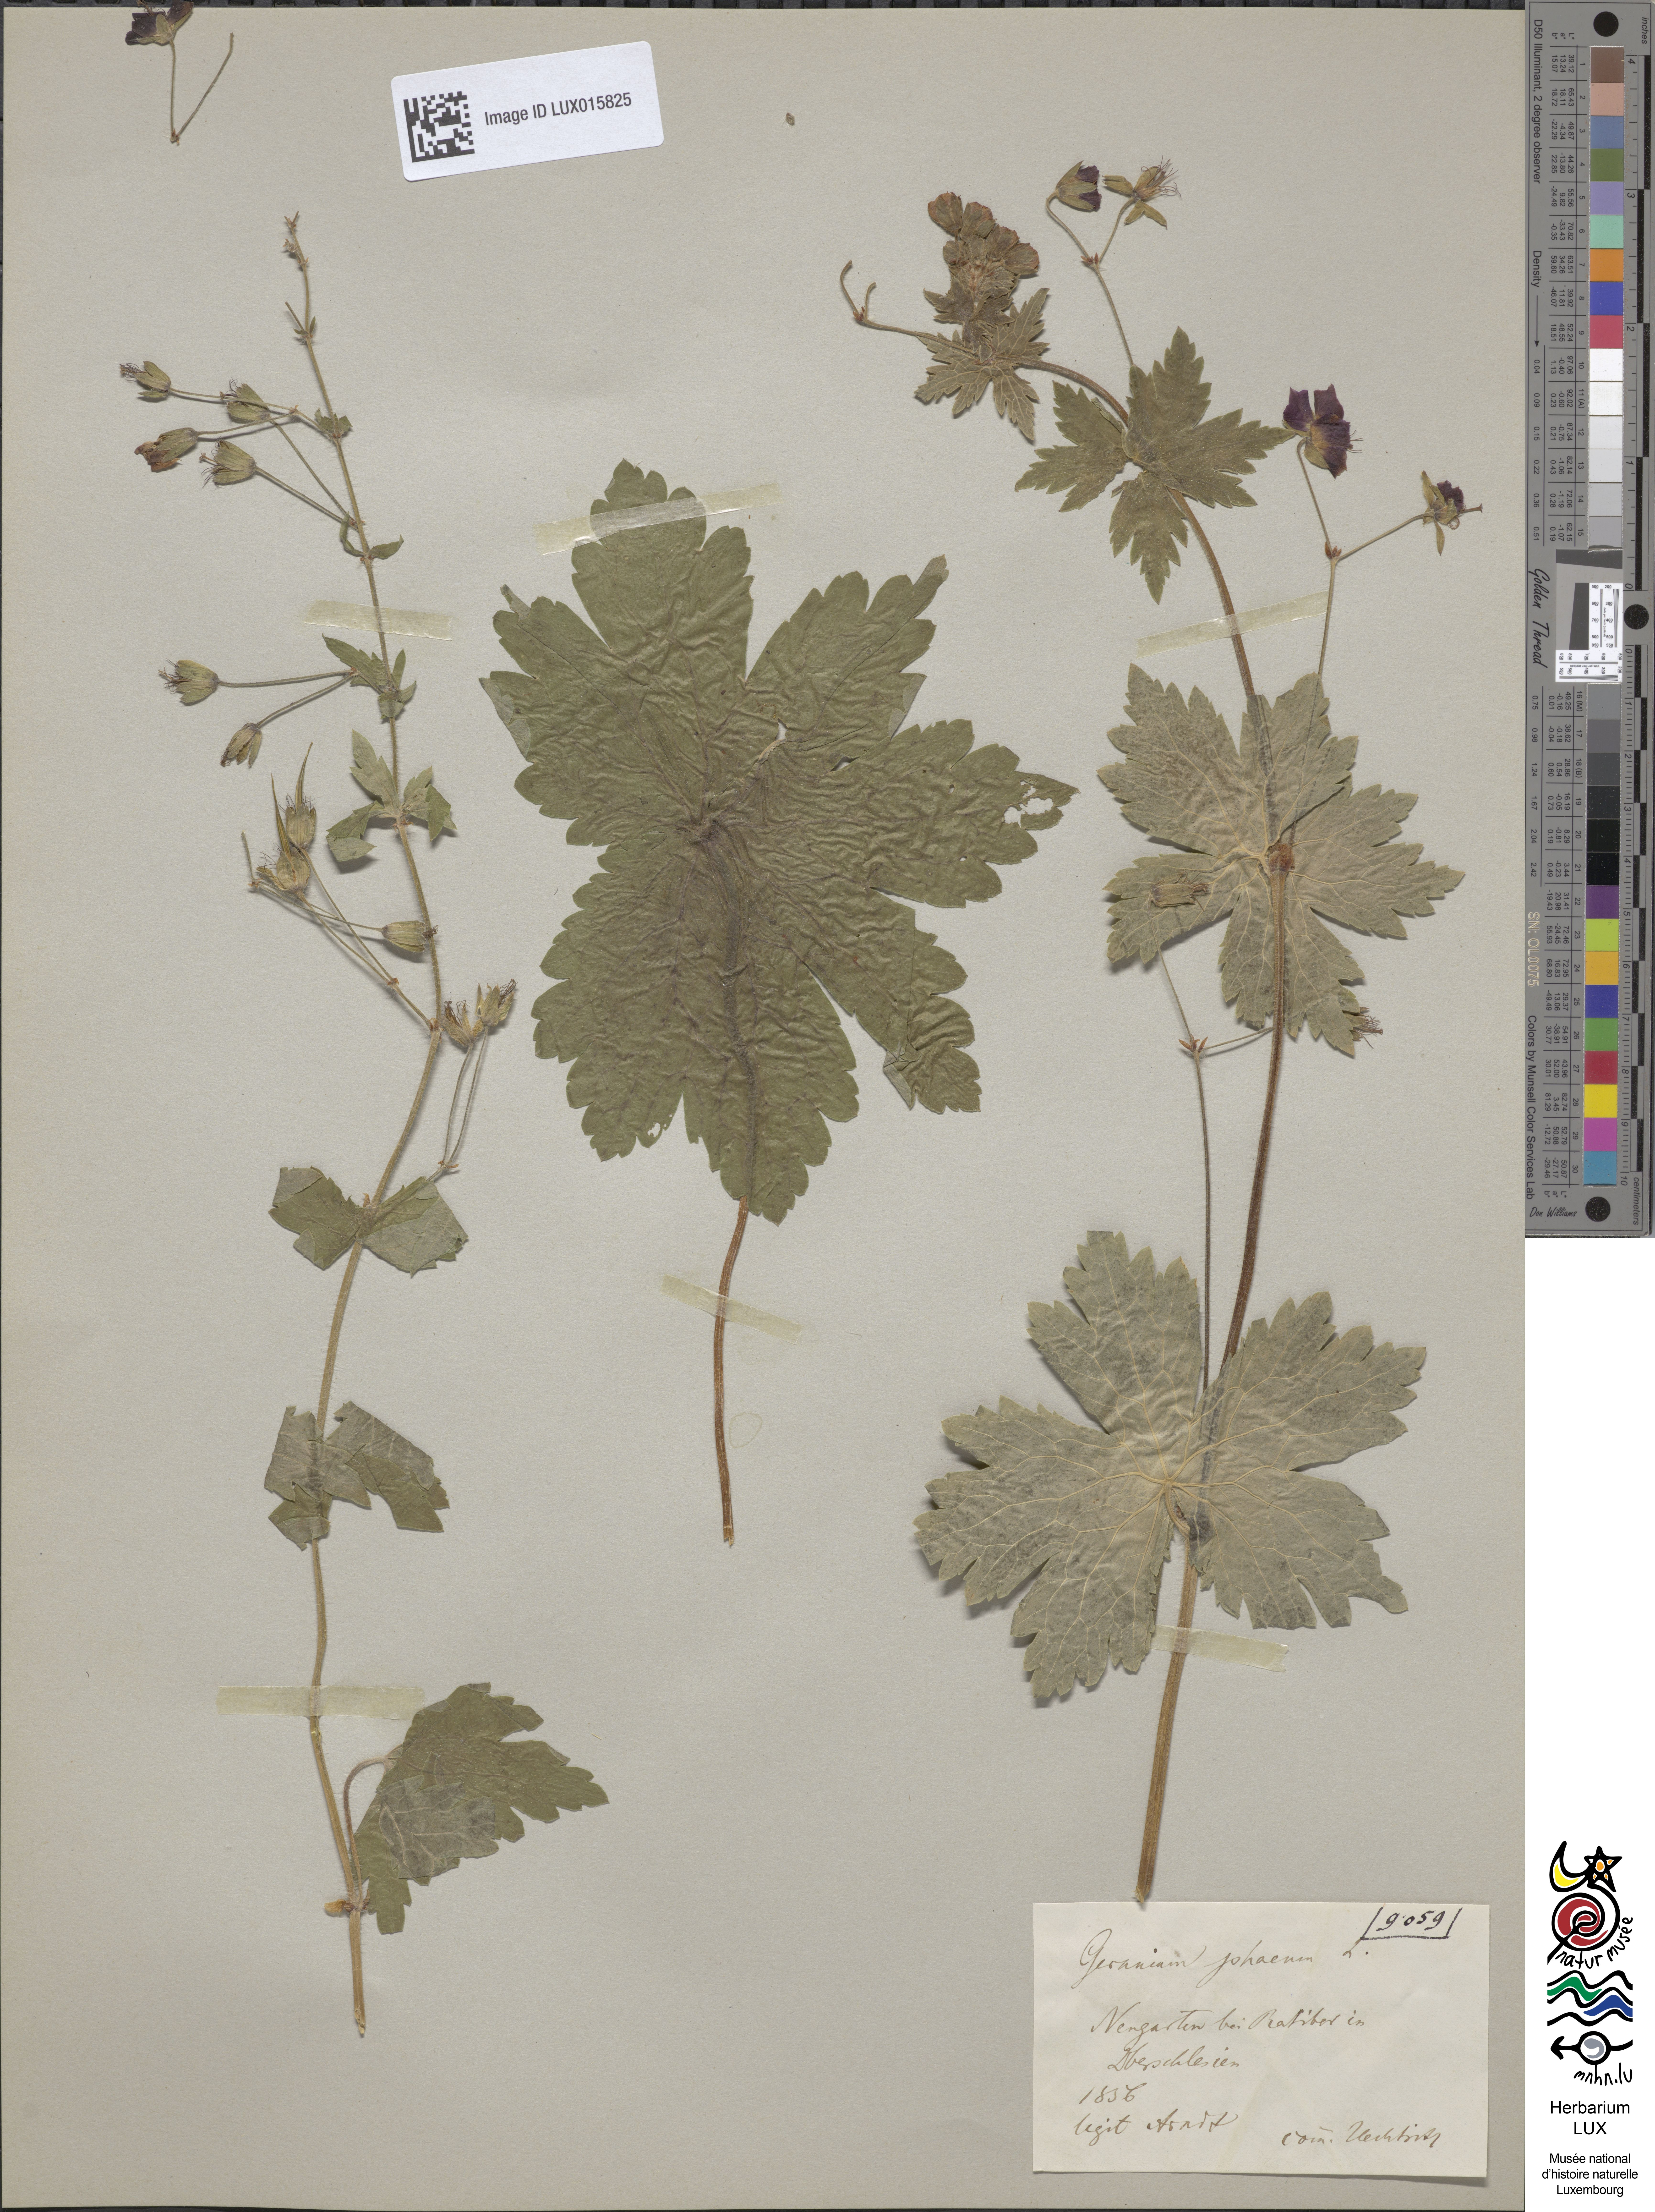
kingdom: Plantae
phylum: Tracheophyta
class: Magnoliopsida
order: Geraniales
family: Geraniaceae
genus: Geranium
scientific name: Geranium phaeum
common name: Dusky crane's-bill
